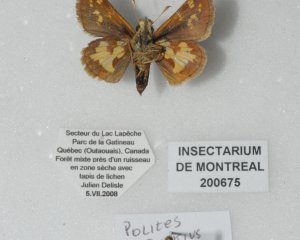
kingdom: Animalia
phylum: Arthropoda
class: Insecta
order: Lepidoptera
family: Hesperiidae
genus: Polites
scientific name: Polites coras
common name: Peck's Skipper
